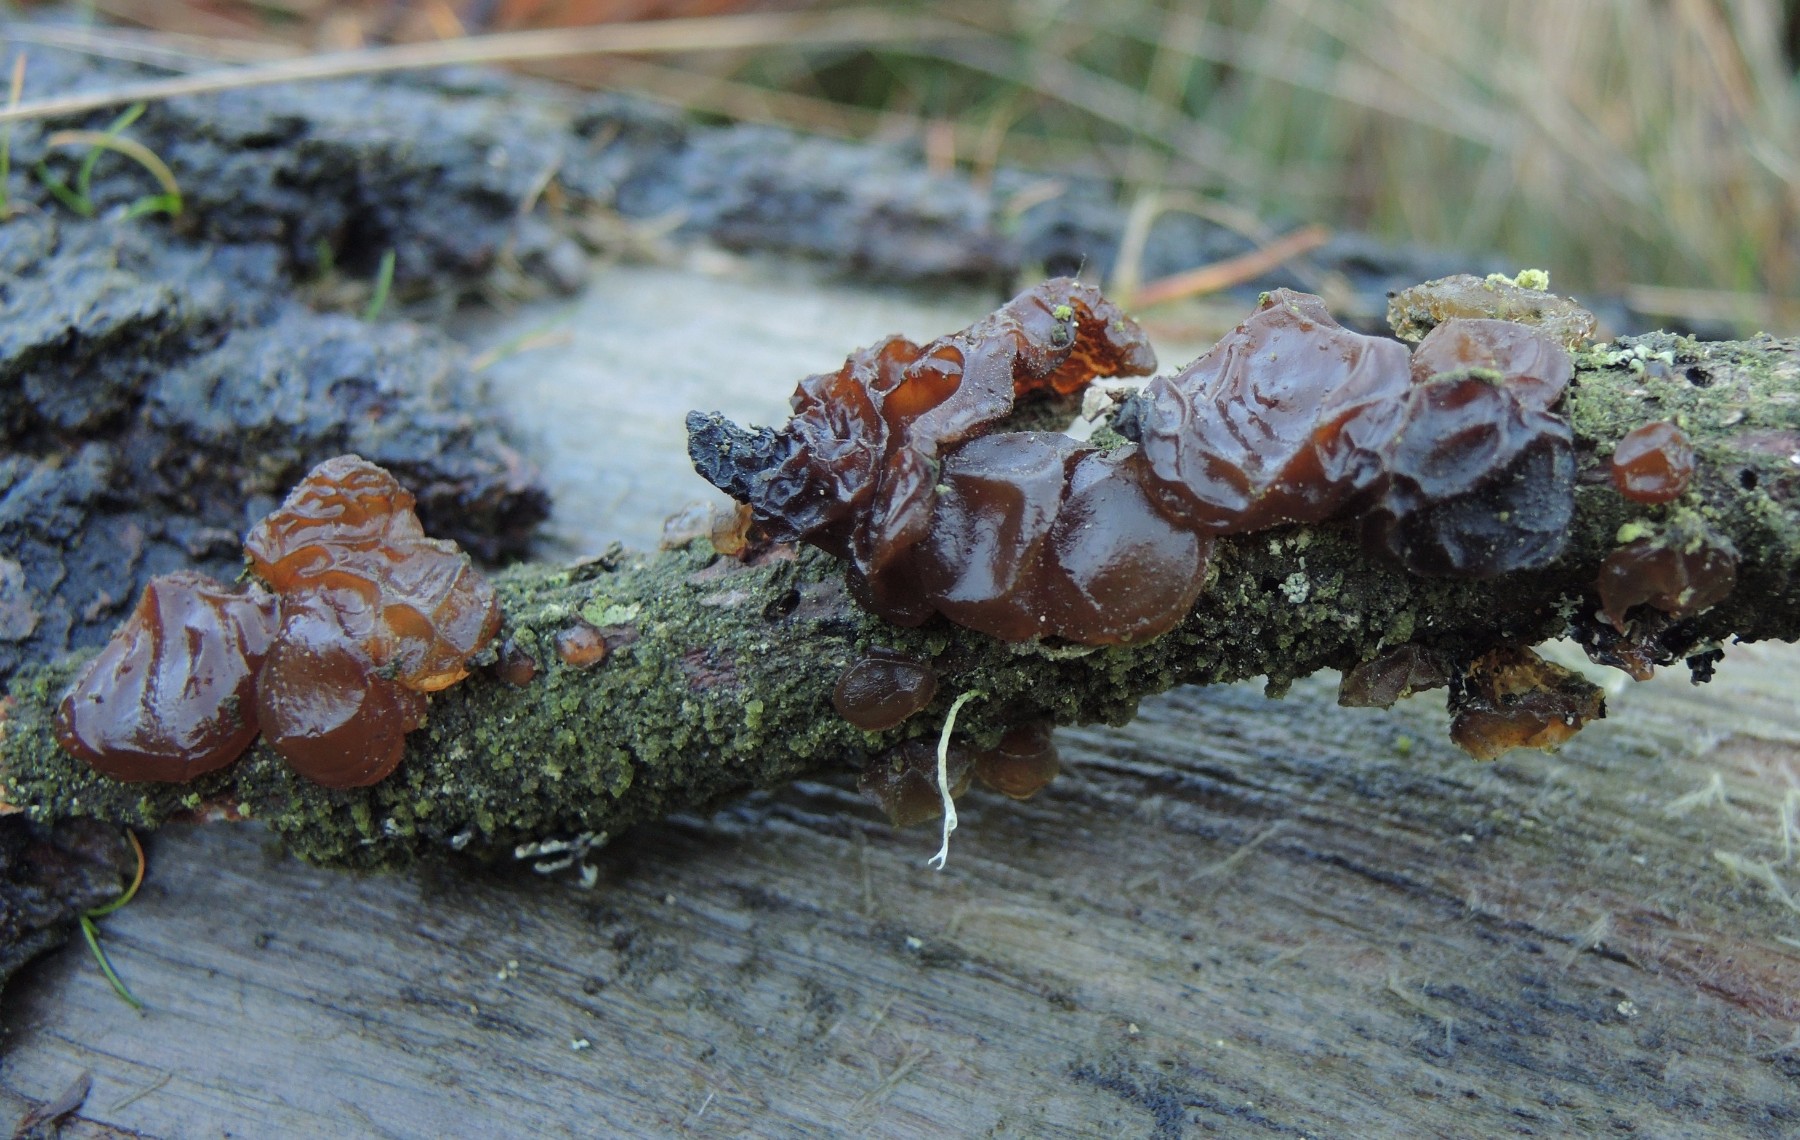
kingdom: Fungi
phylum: Basidiomycota
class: Agaricomycetes
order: Auriculariales
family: Auriculariaceae
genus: Exidia
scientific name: Exidia saccharina
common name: kandis-bævretop
